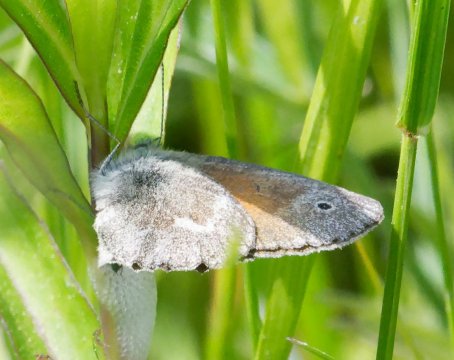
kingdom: Animalia
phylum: Arthropoda
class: Insecta
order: Lepidoptera
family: Nymphalidae
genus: Coenonympha
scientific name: Coenonympha tullia
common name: Large Heath
